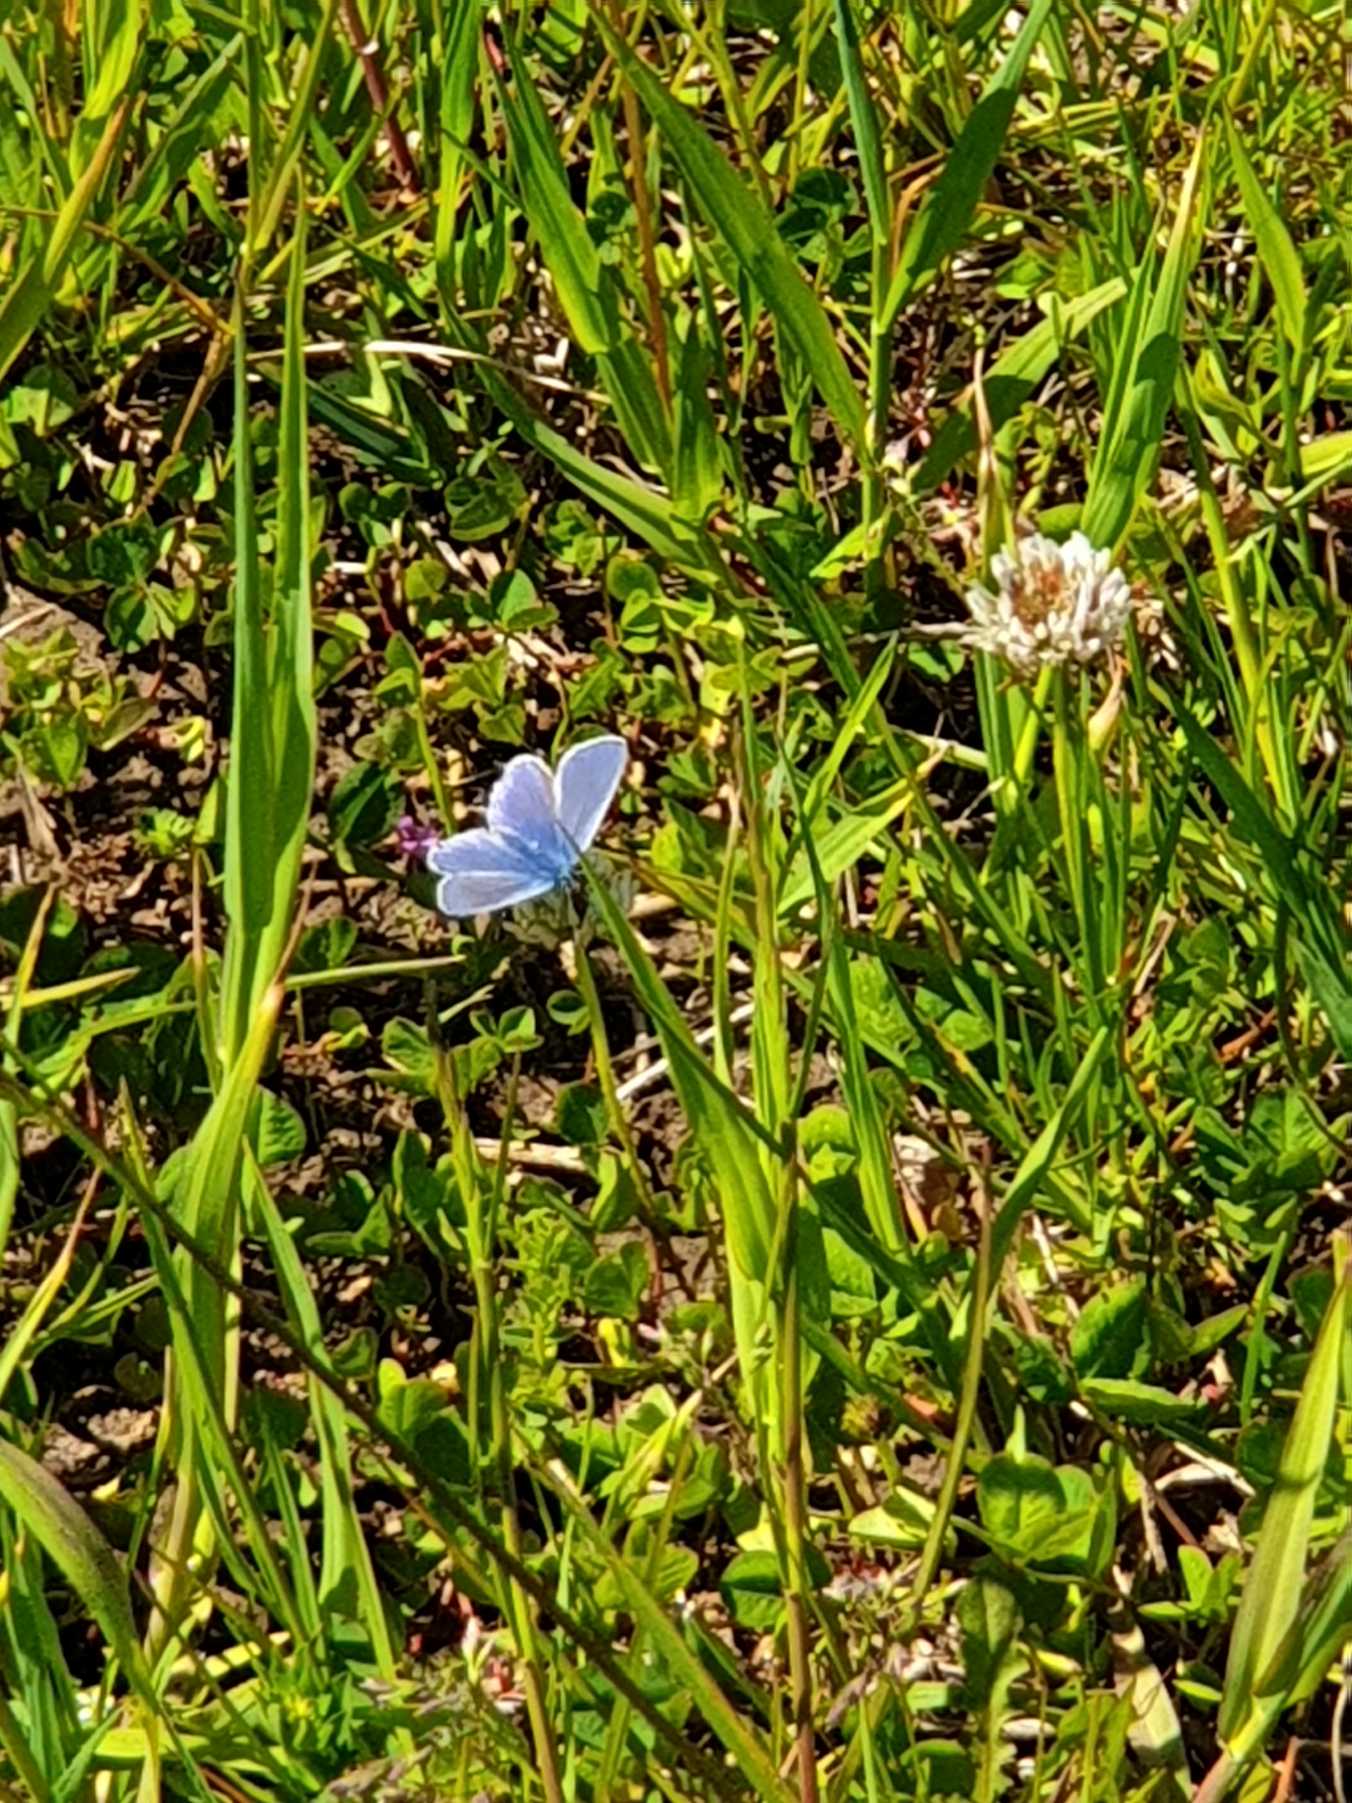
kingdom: Animalia
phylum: Arthropoda
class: Insecta
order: Lepidoptera
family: Lycaenidae
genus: Polyommatus
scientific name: Polyommatus icarus
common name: Almindelig blåfugl
